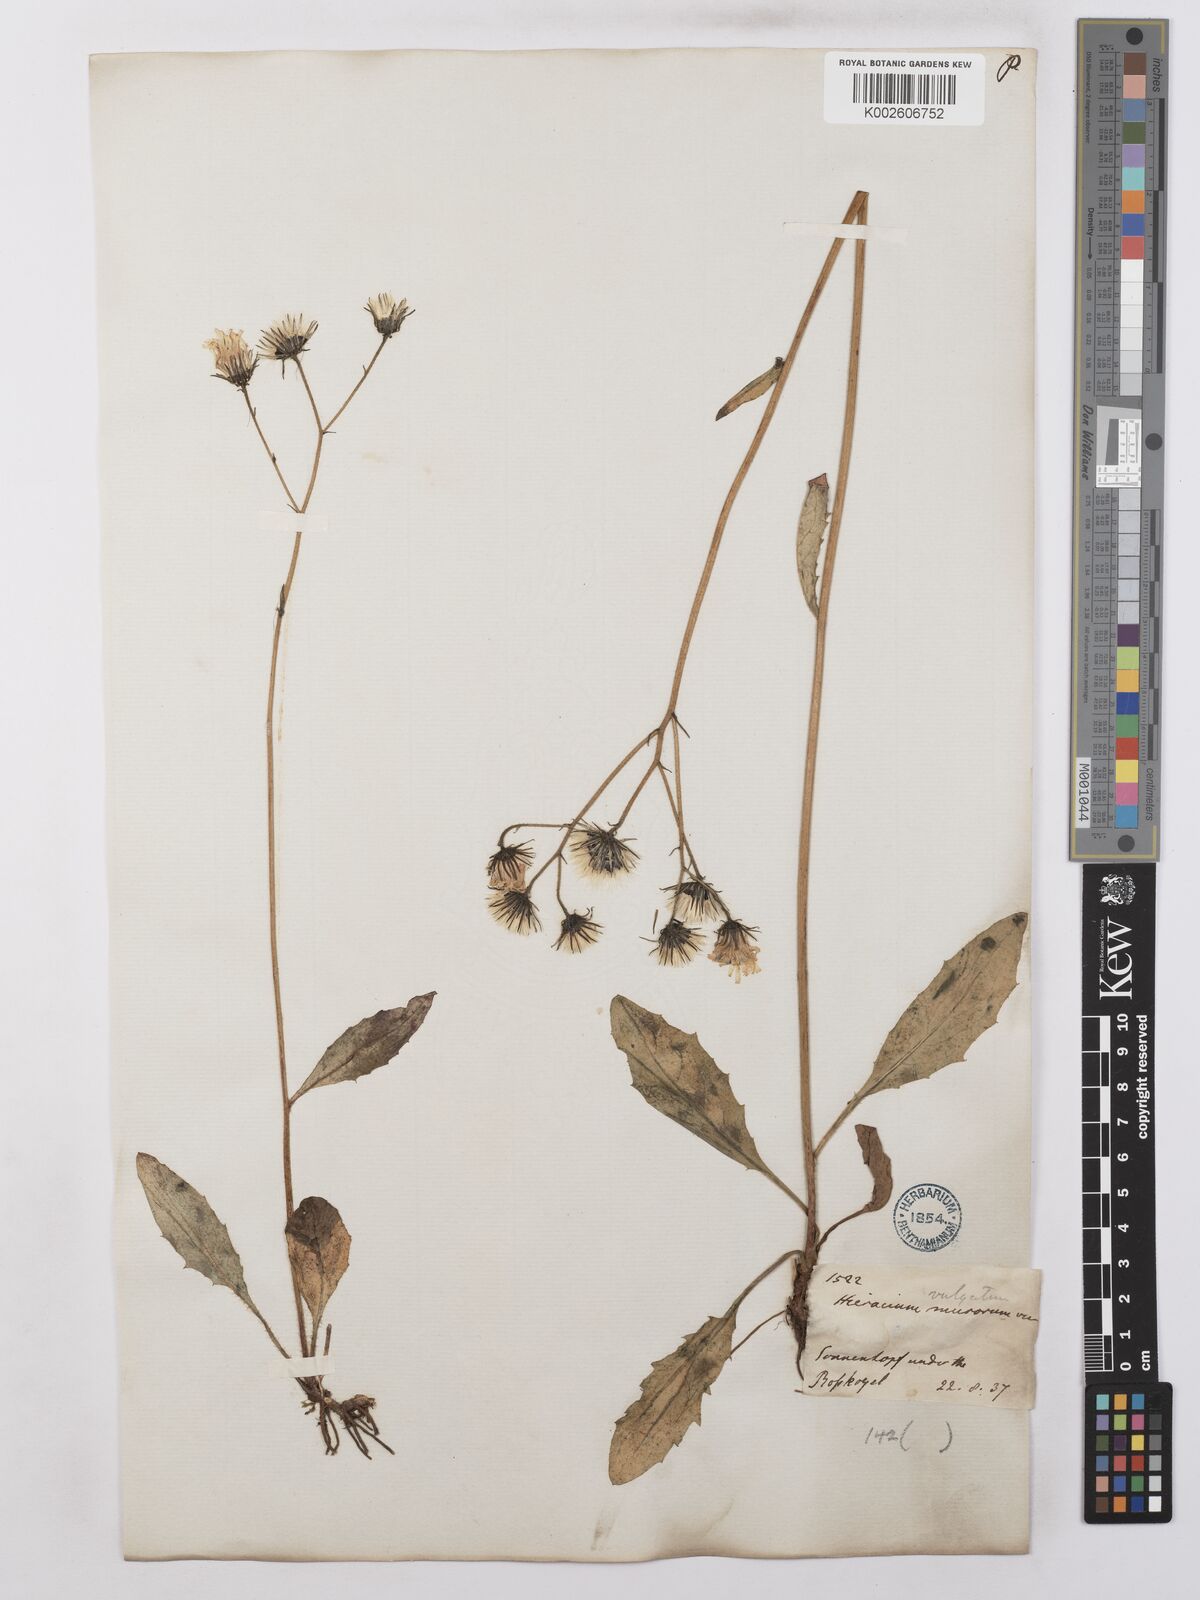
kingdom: Plantae
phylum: Tracheophyta
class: Magnoliopsida
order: Asterales
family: Asteraceae
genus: Hieracium
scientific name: Hieracium lachenalii
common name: Common hawkweed
